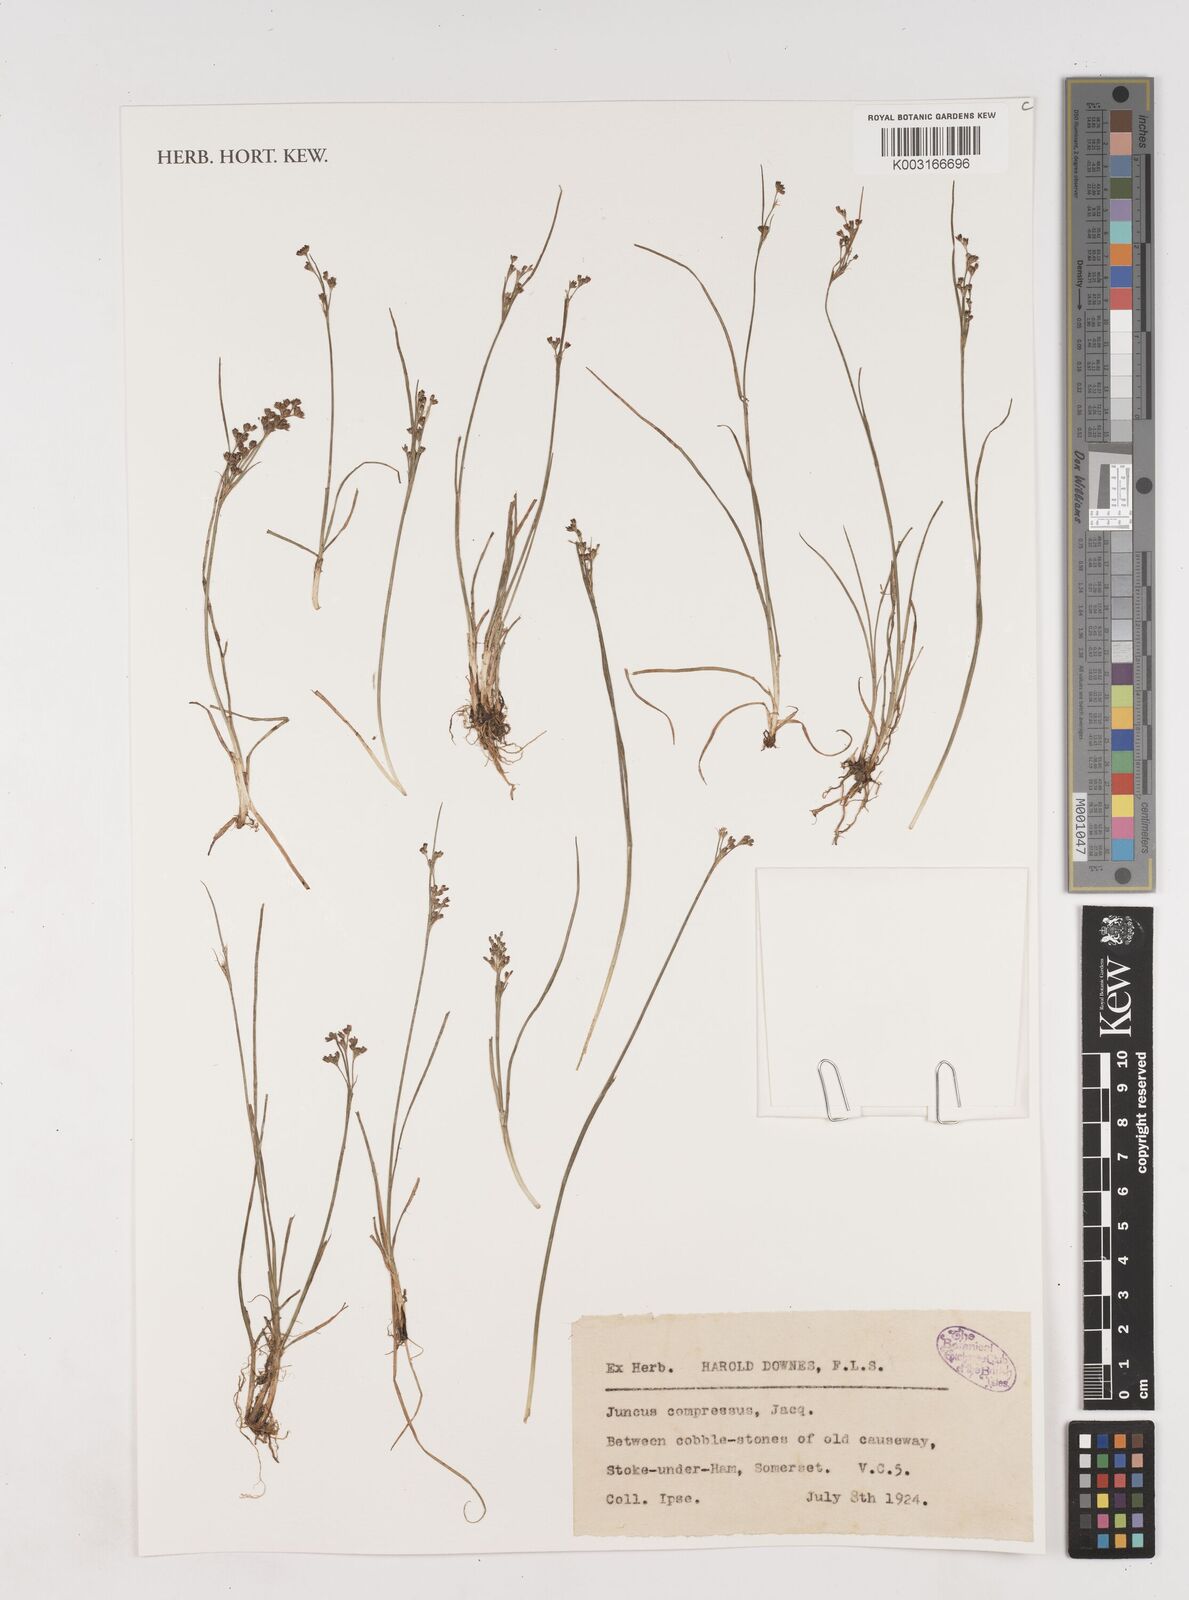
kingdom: Plantae
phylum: Tracheophyta
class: Liliopsida
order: Poales
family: Juncaceae
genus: Juncus
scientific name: Juncus compressus
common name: Round-fruited rush
